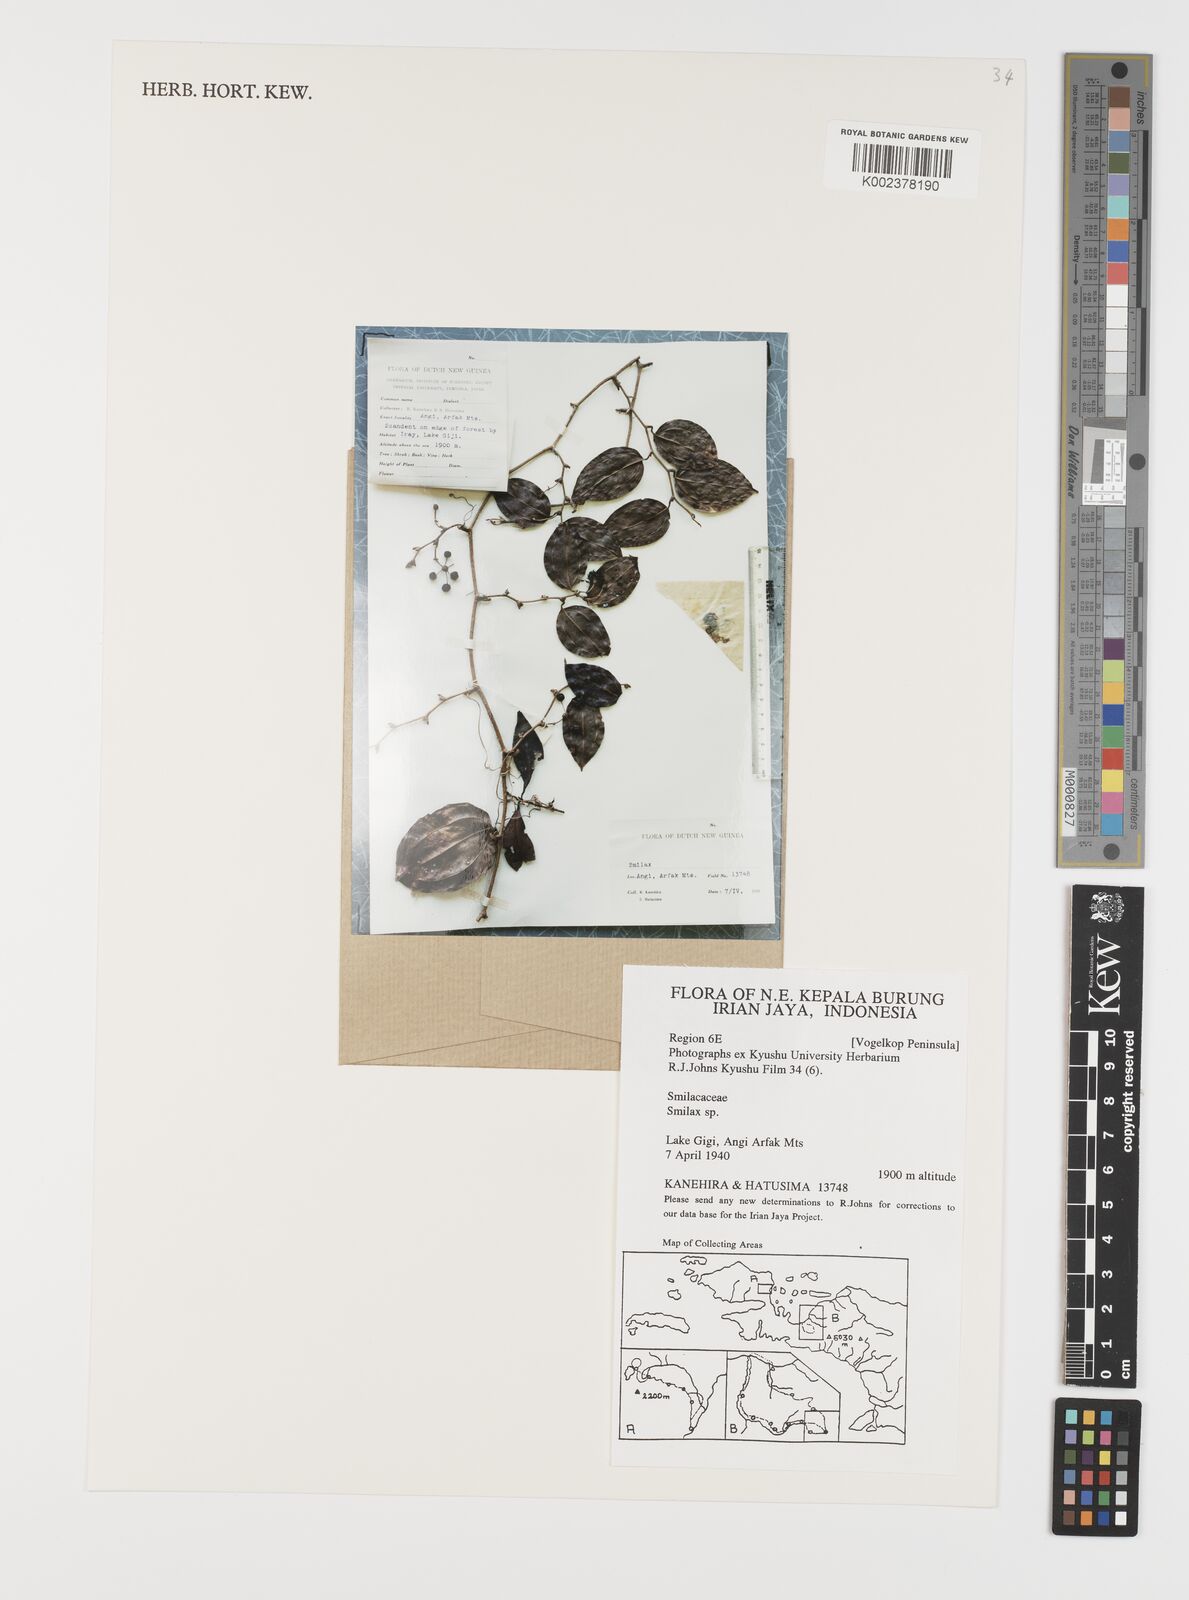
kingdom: Plantae
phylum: Tracheophyta
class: Liliopsida
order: Liliales
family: Smilacaceae
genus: Smilax
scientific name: Smilax
